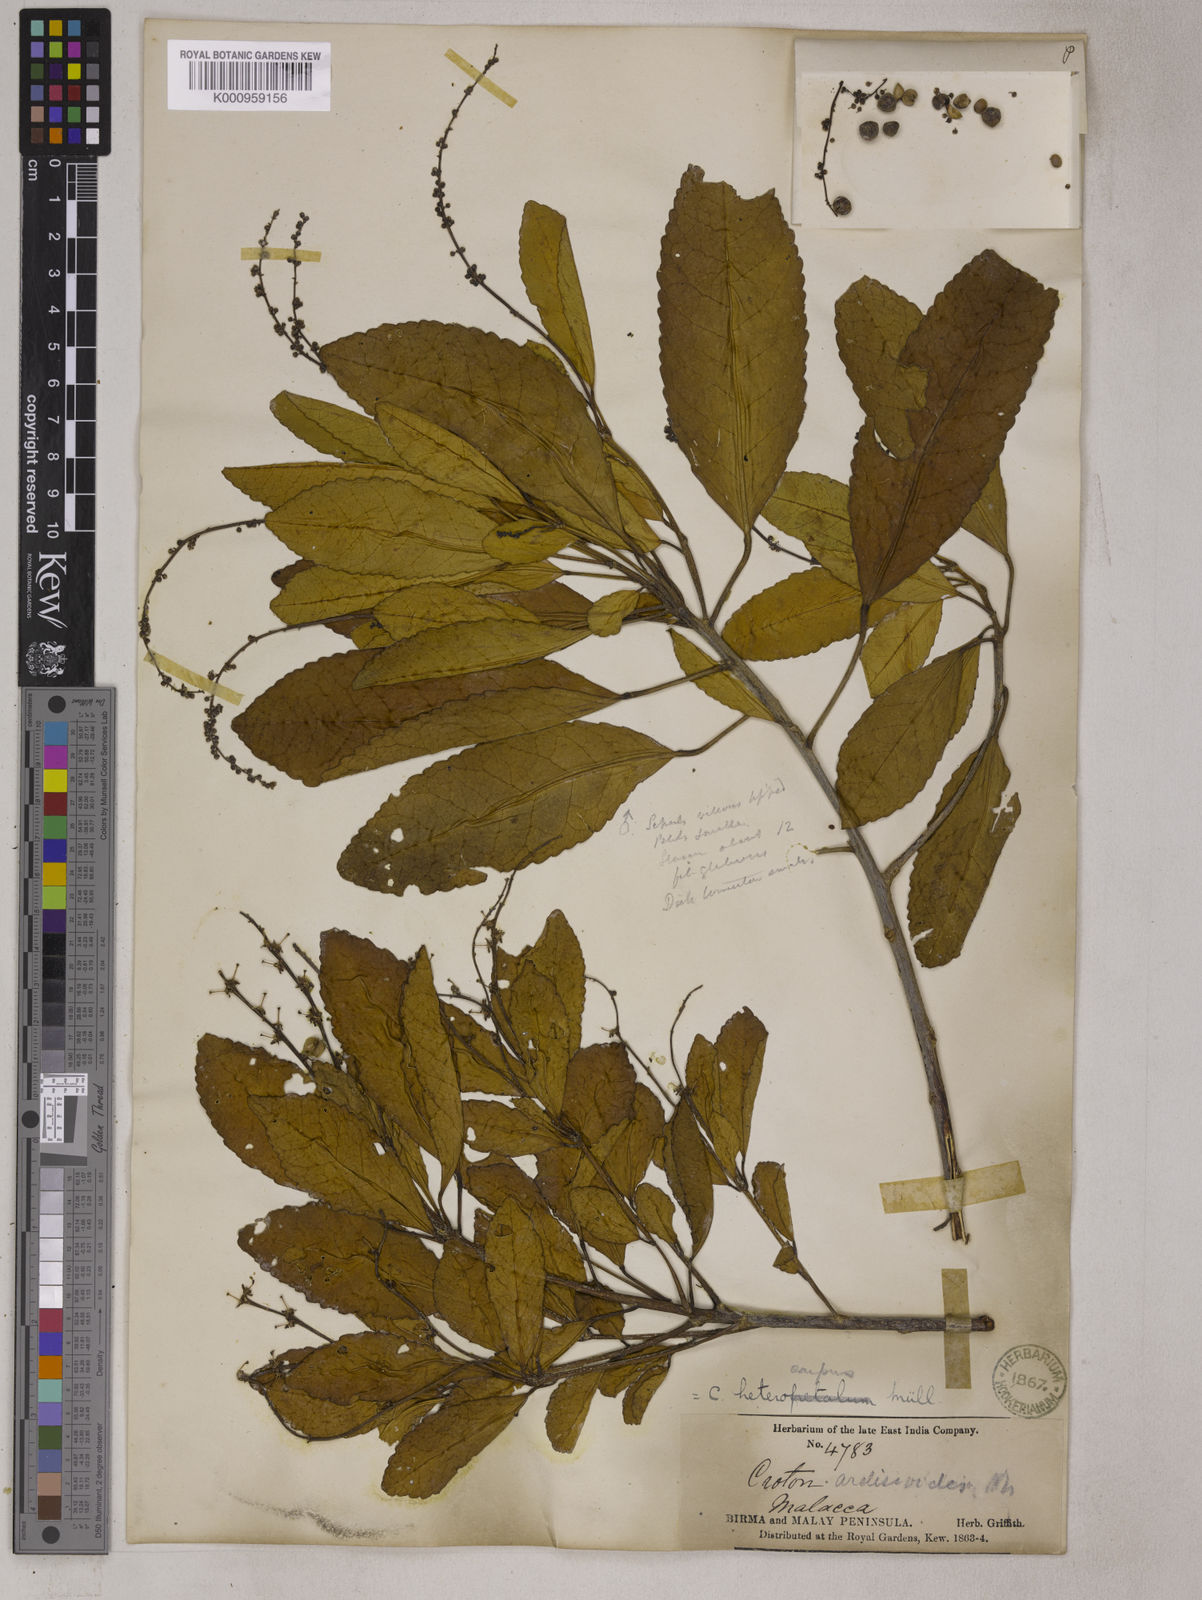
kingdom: Plantae
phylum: Tracheophyta
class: Magnoliopsida
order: Malpighiales
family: Euphorbiaceae
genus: Croton
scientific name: Croton
